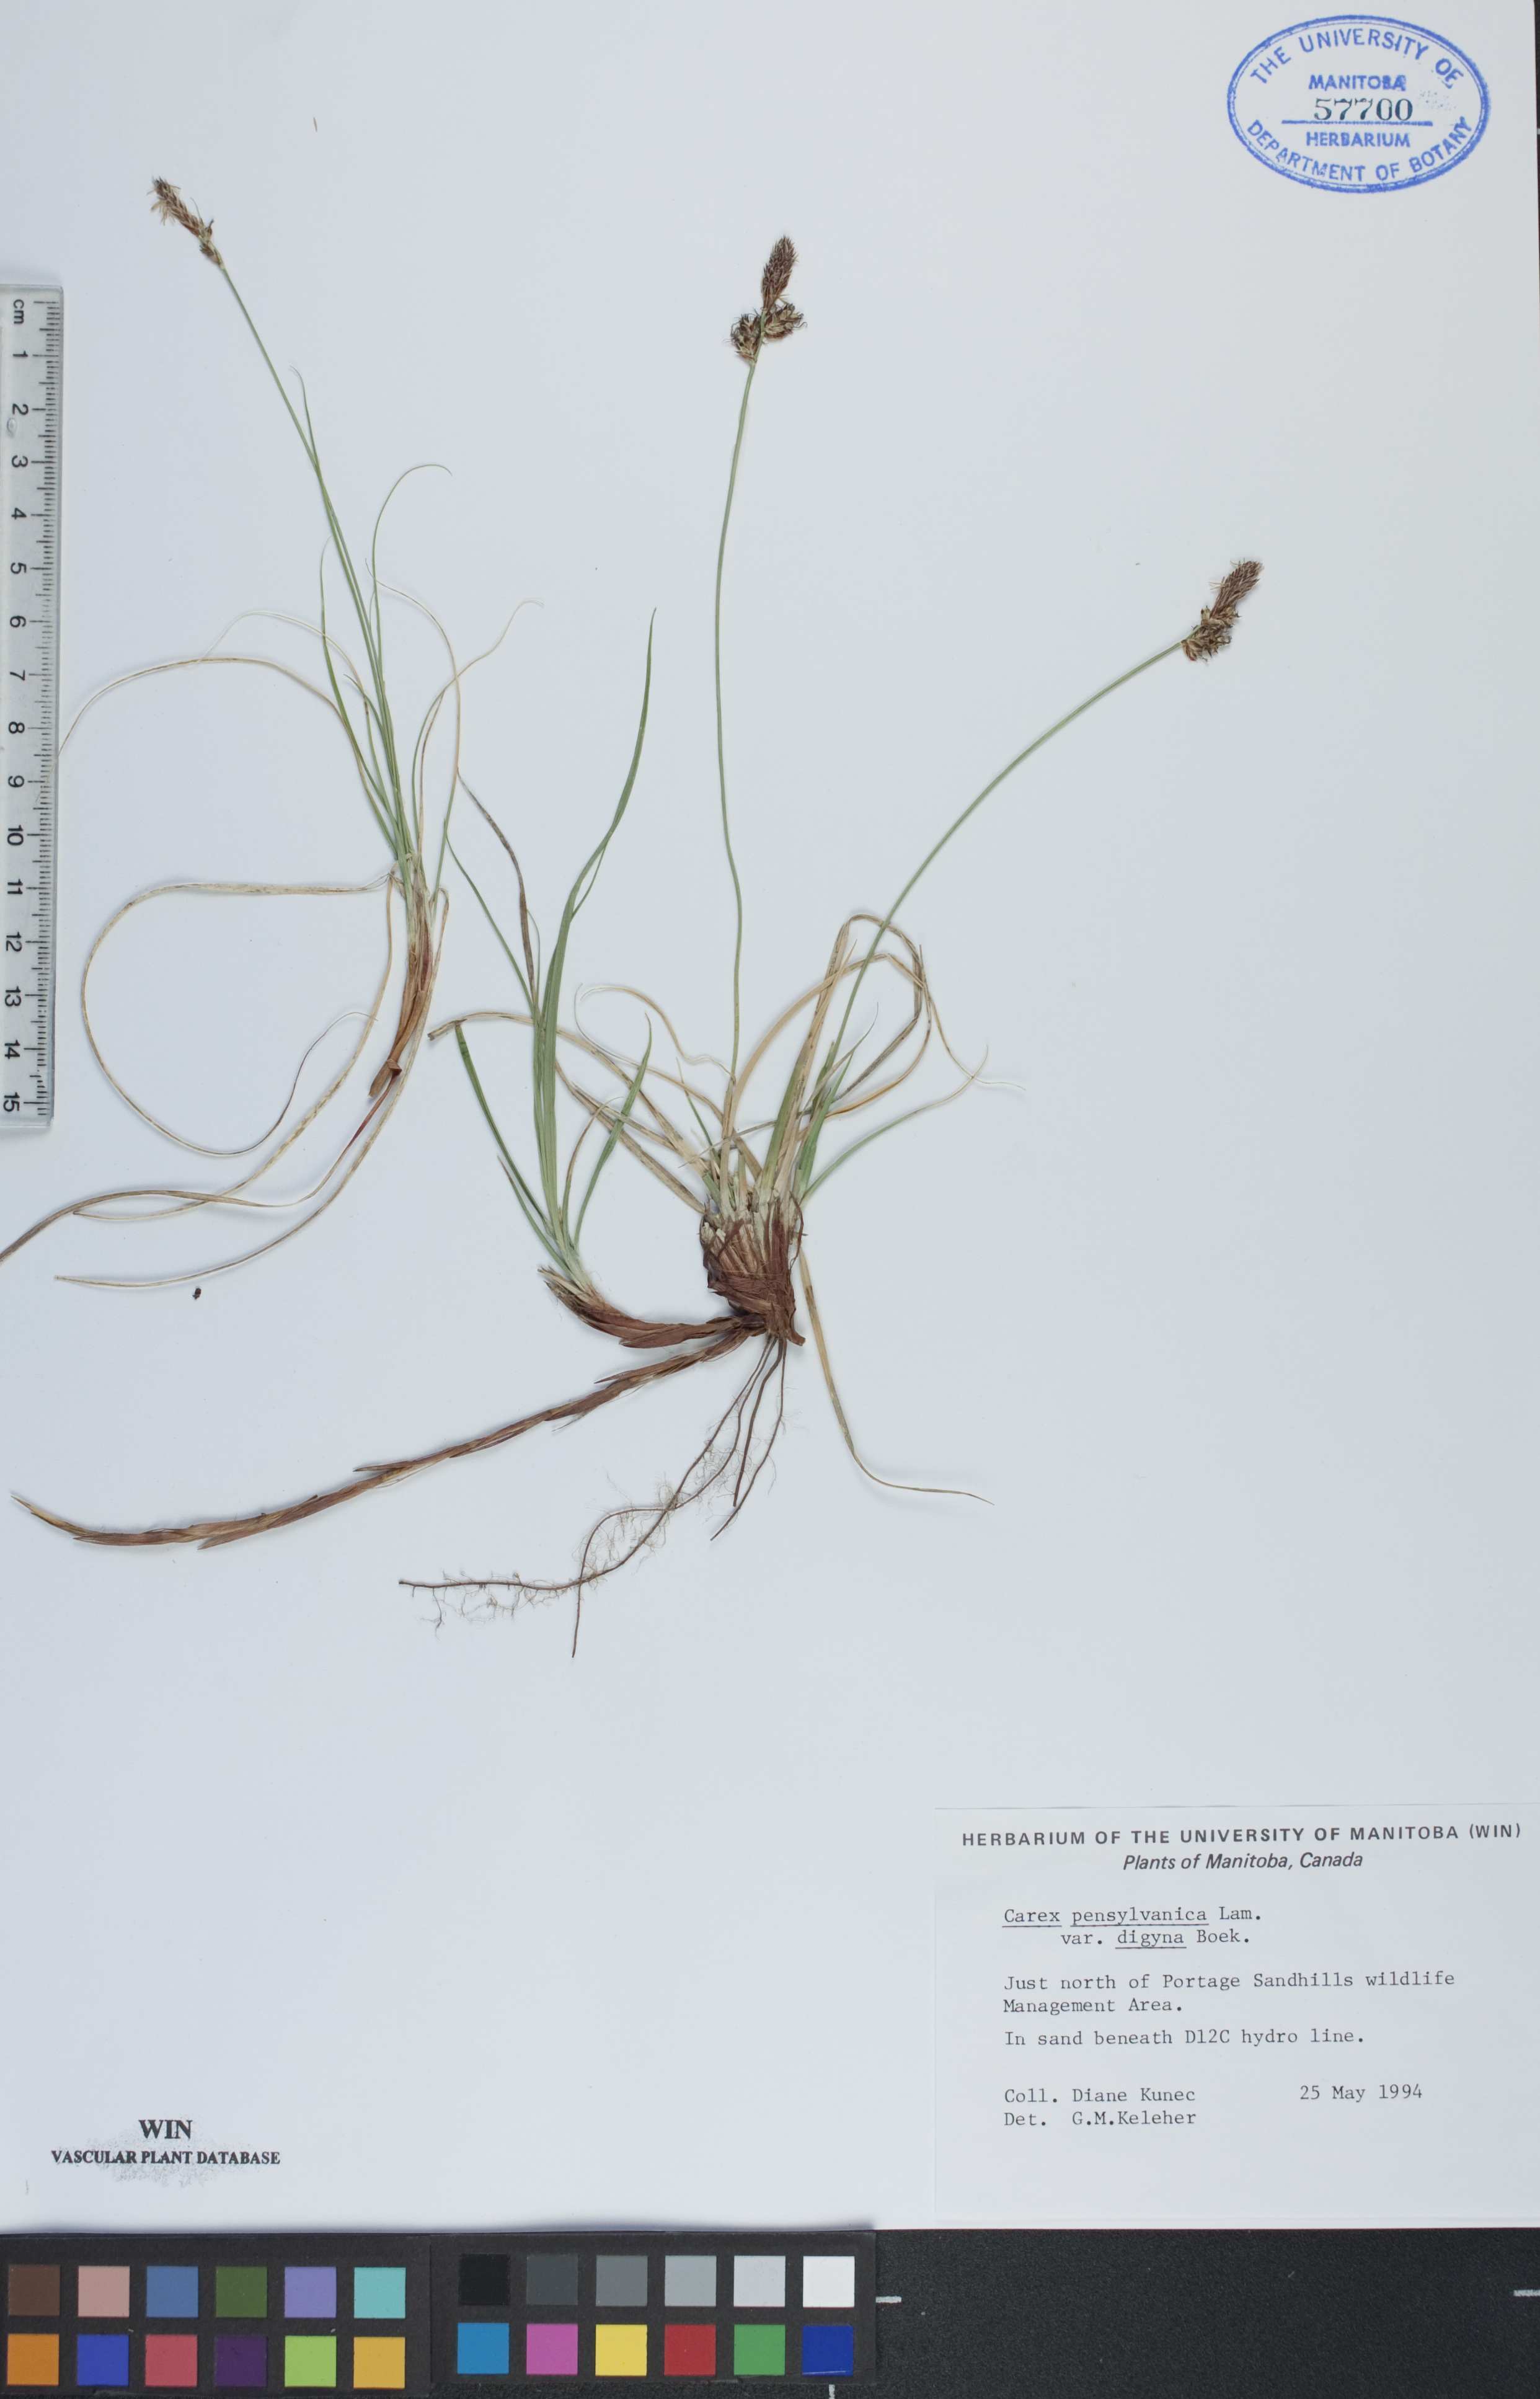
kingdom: Plantae
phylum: Tracheophyta
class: Liliopsida
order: Poales
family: Cyperaceae
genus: Carex
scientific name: Carex inops
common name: Long-stolon sedge
